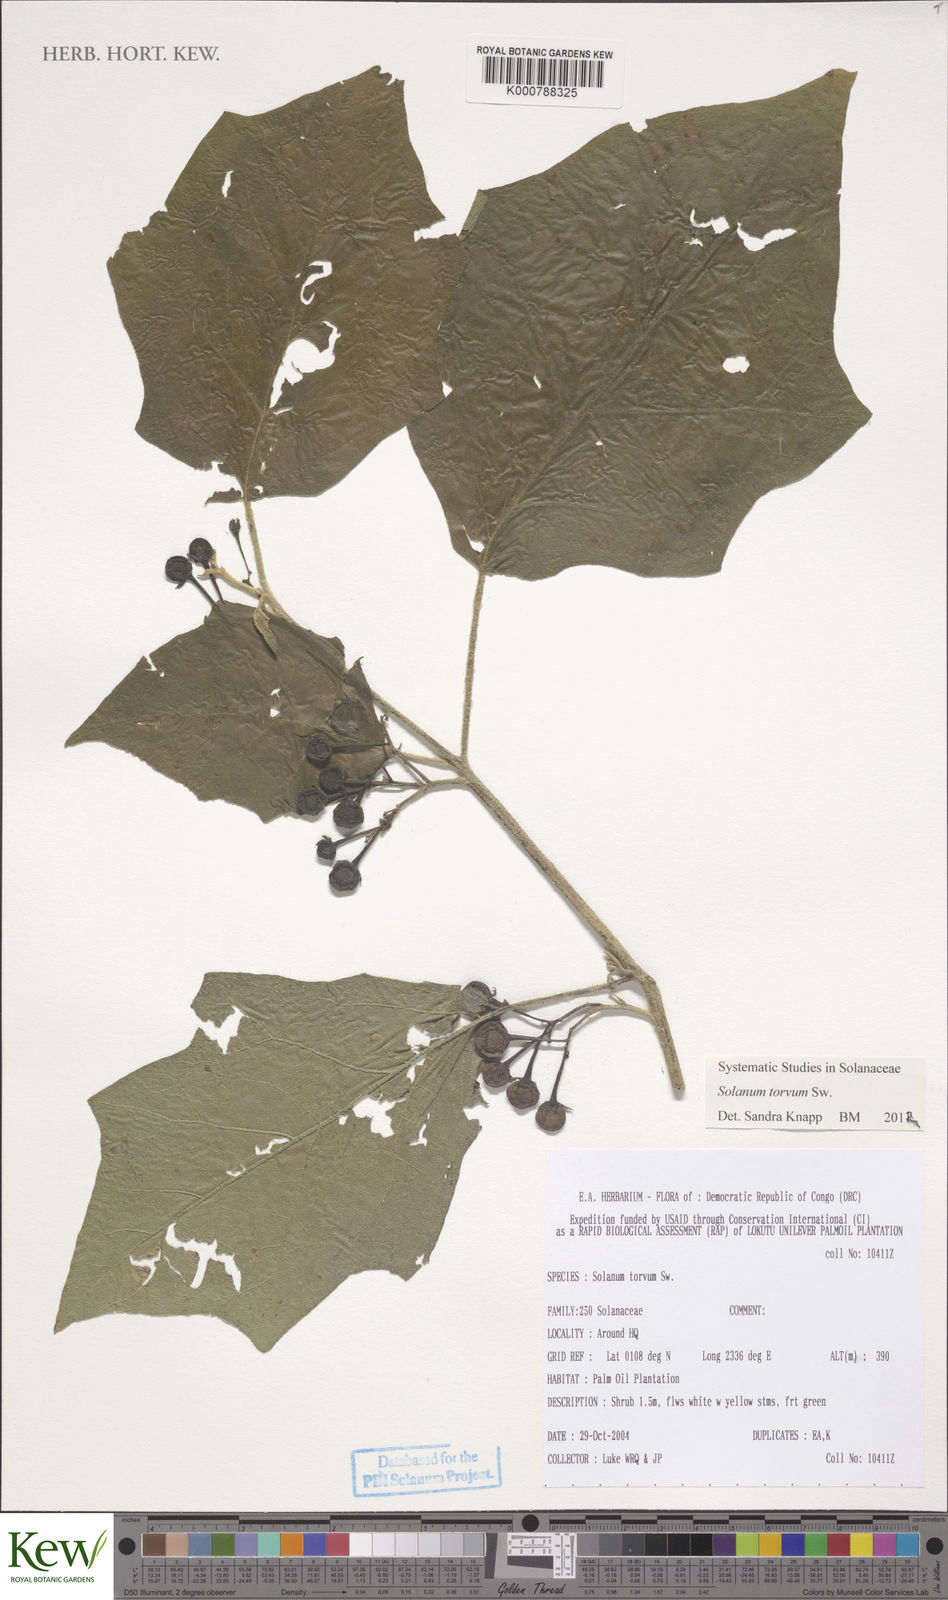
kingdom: Plantae
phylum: Tracheophyta
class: Magnoliopsida
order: Solanales
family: Solanaceae
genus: Solanum
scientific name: Solanum torvum
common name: Turkey berry
